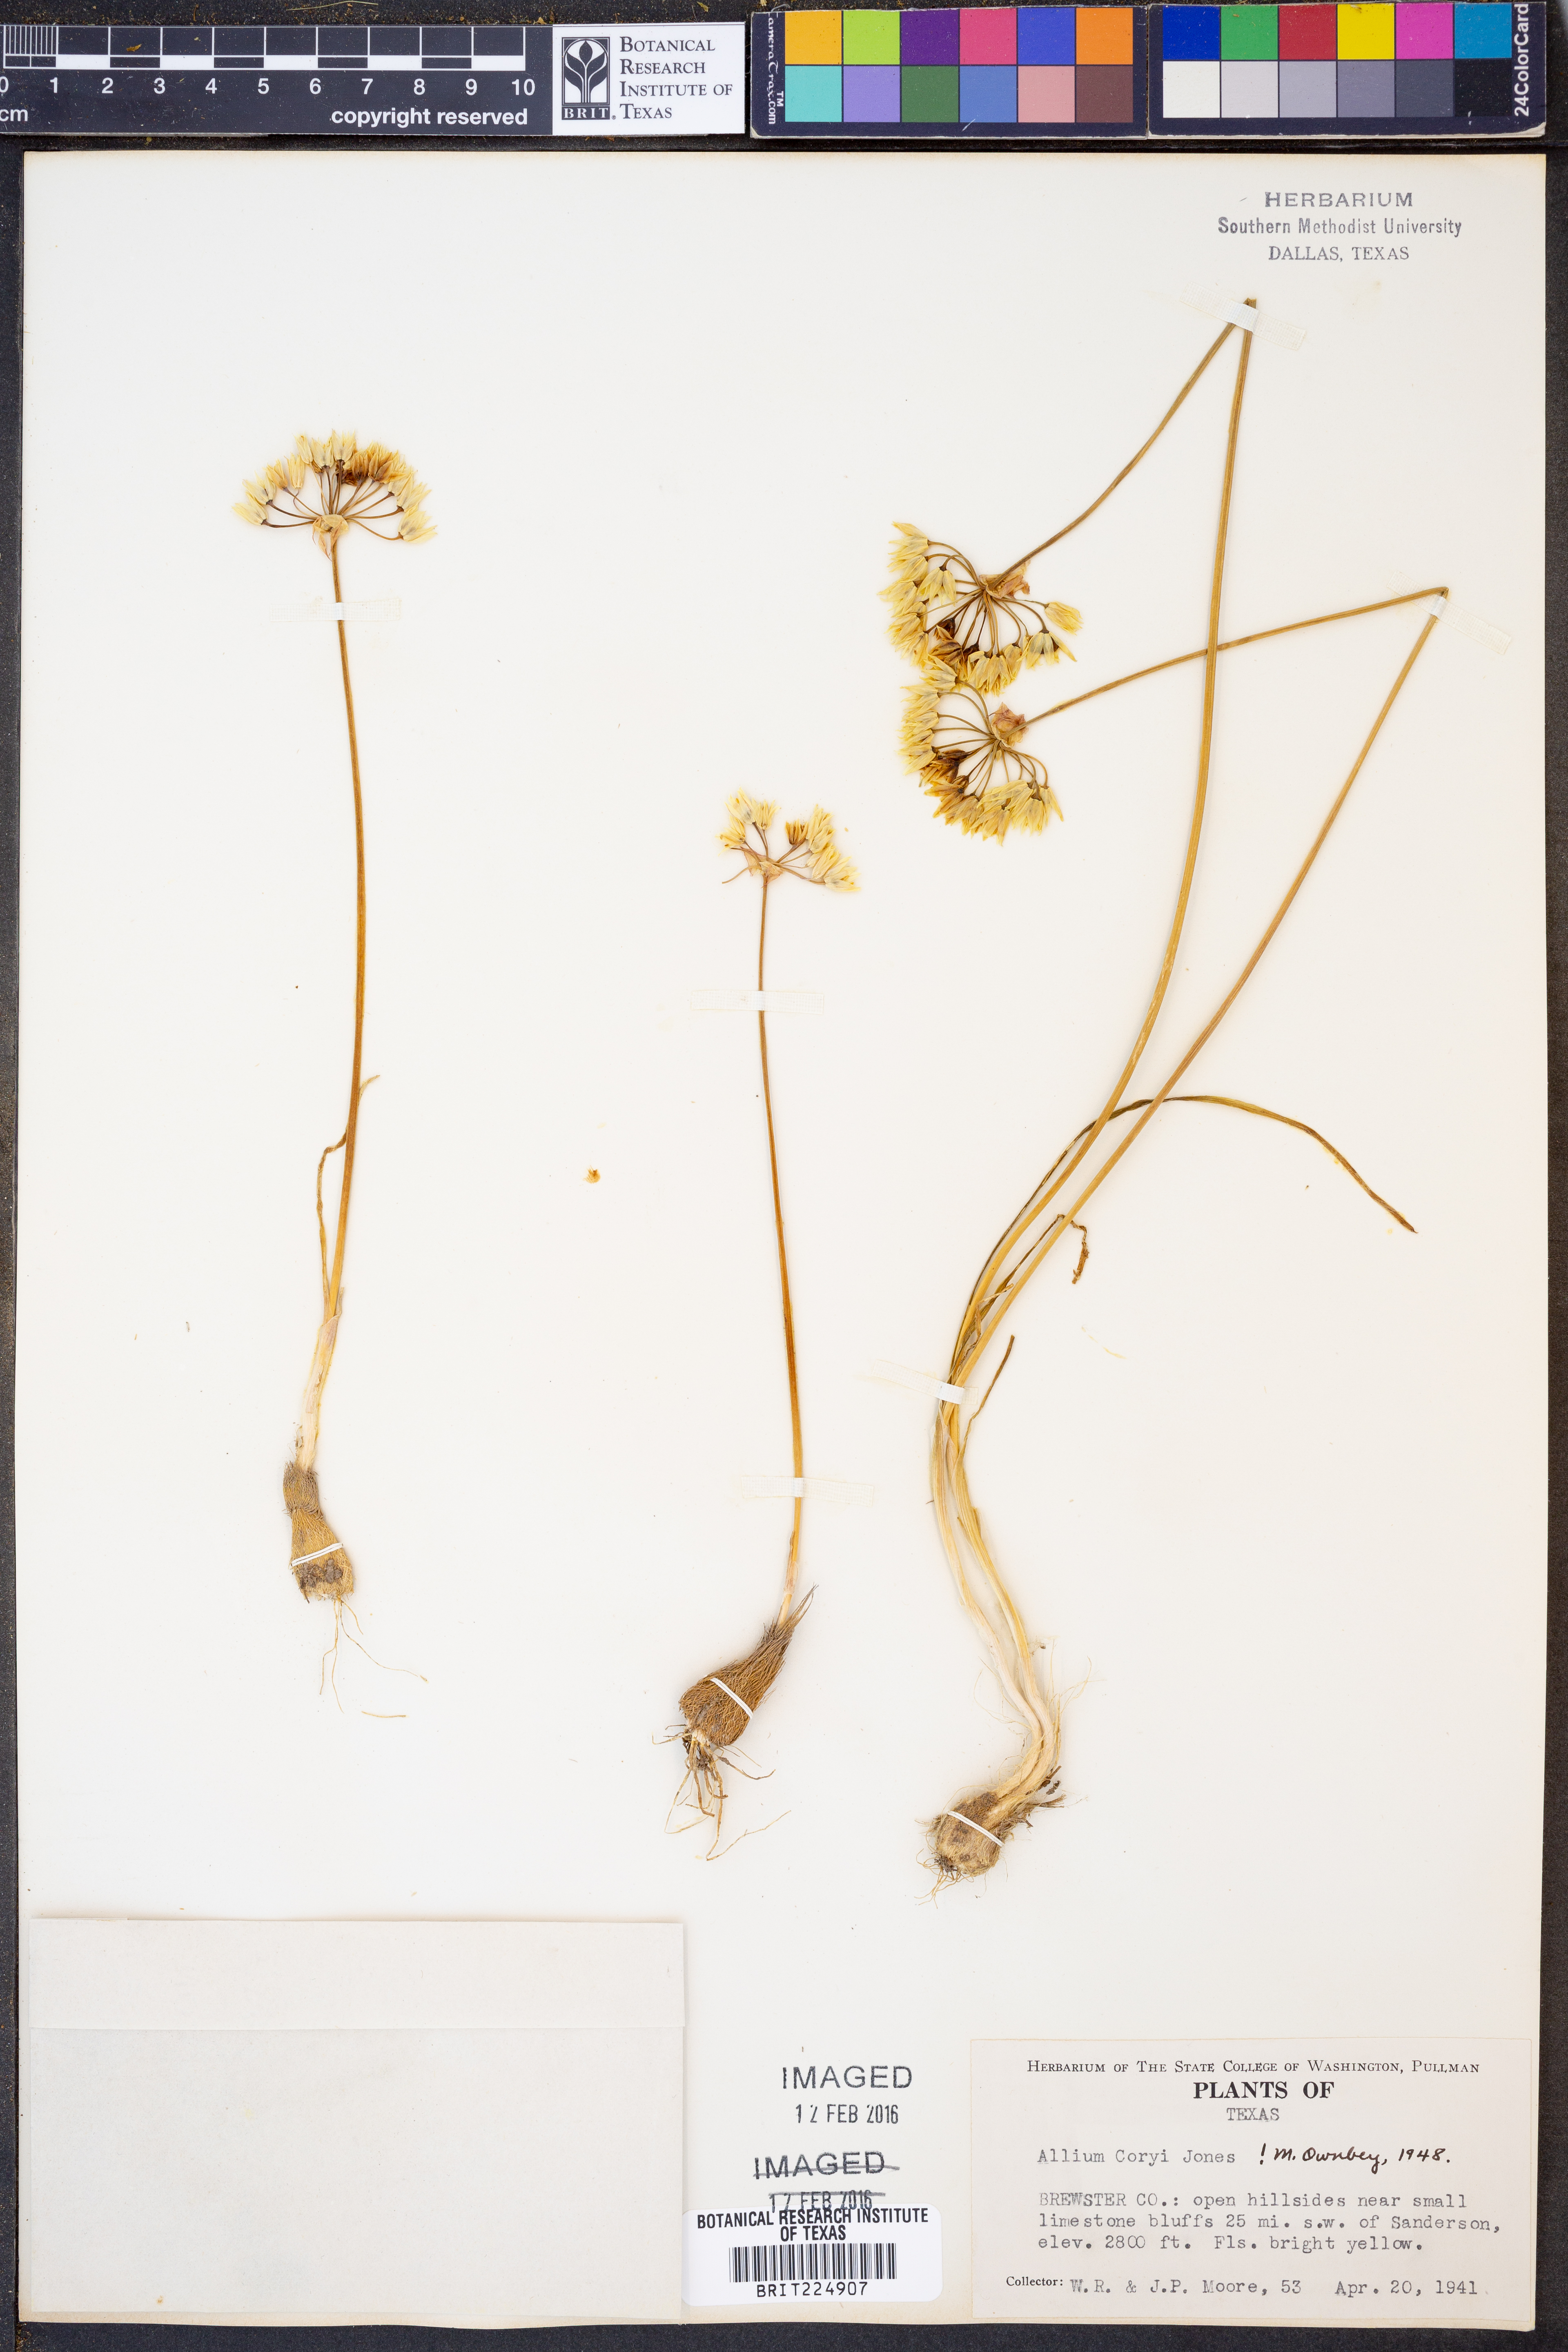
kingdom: Plantae
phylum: Tracheophyta
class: Liliopsida
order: Asparagales
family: Amaryllidaceae
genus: Allium
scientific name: Allium coryi
